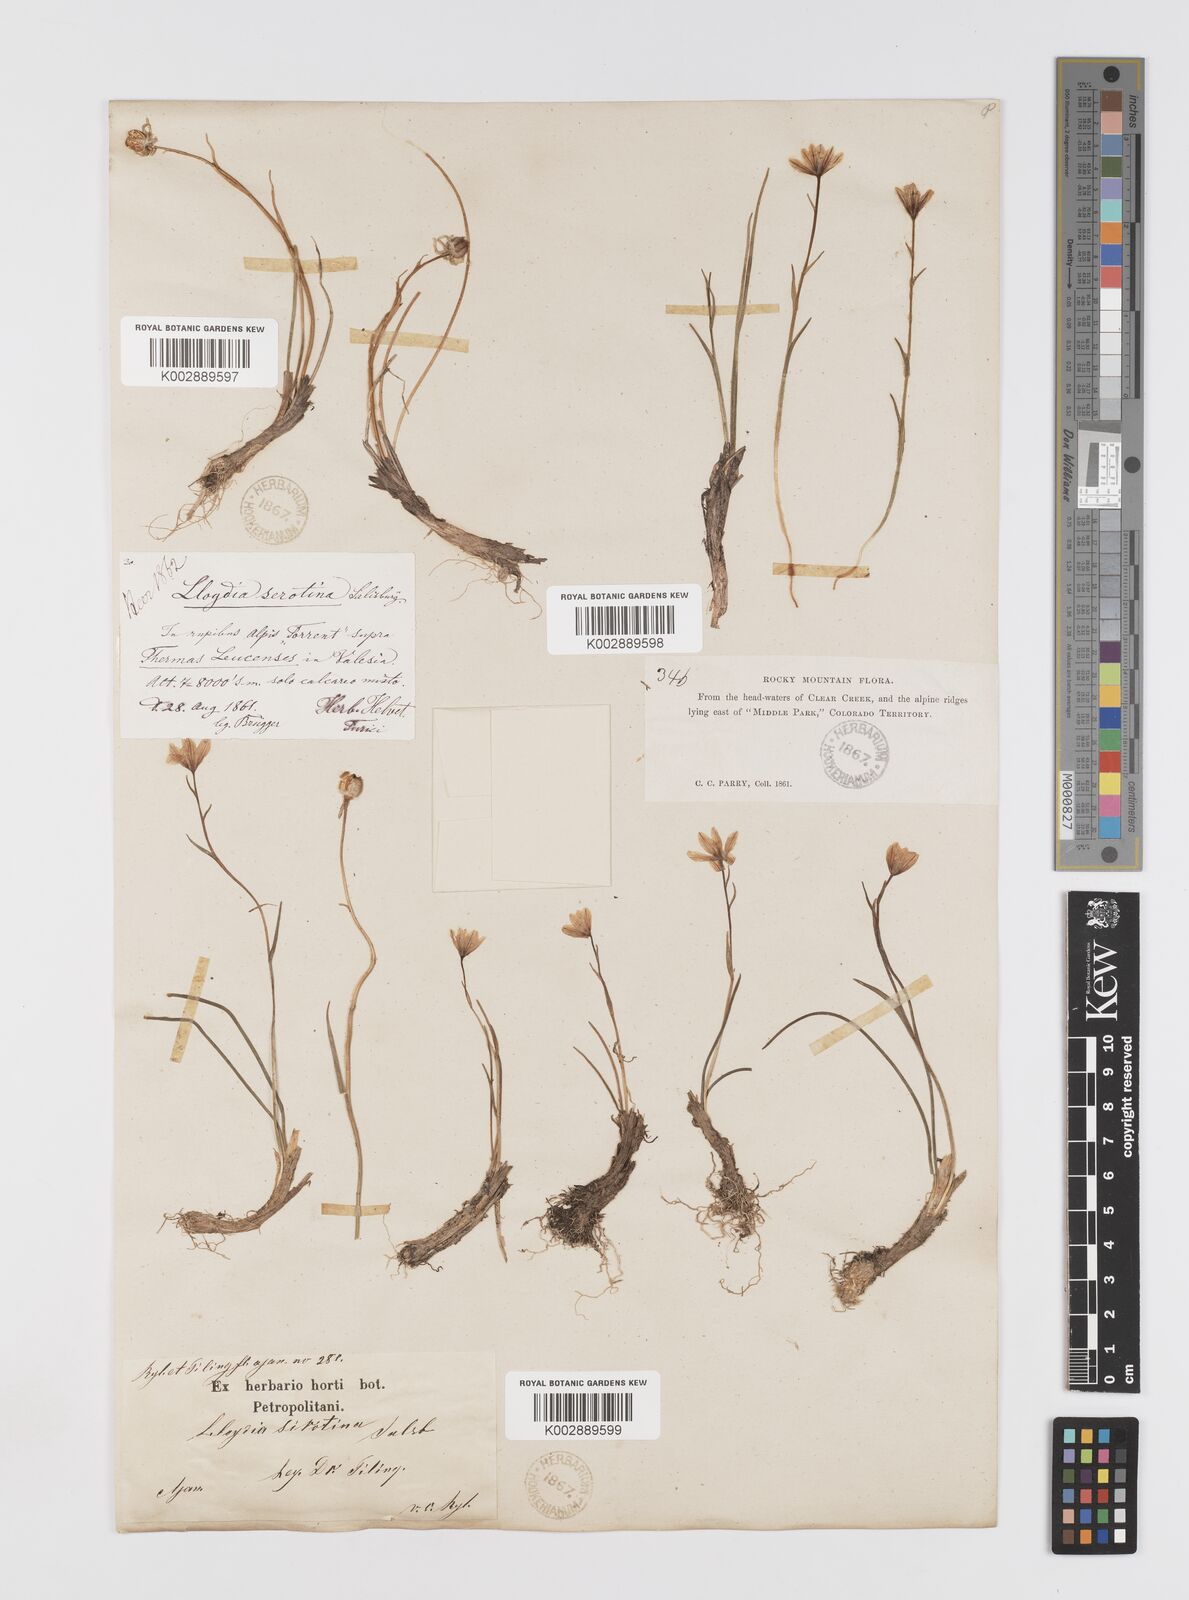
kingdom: Plantae
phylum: Tracheophyta
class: Liliopsida
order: Liliales
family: Liliaceae
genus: Gagea
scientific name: Gagea serotina
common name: Snowdon lily
